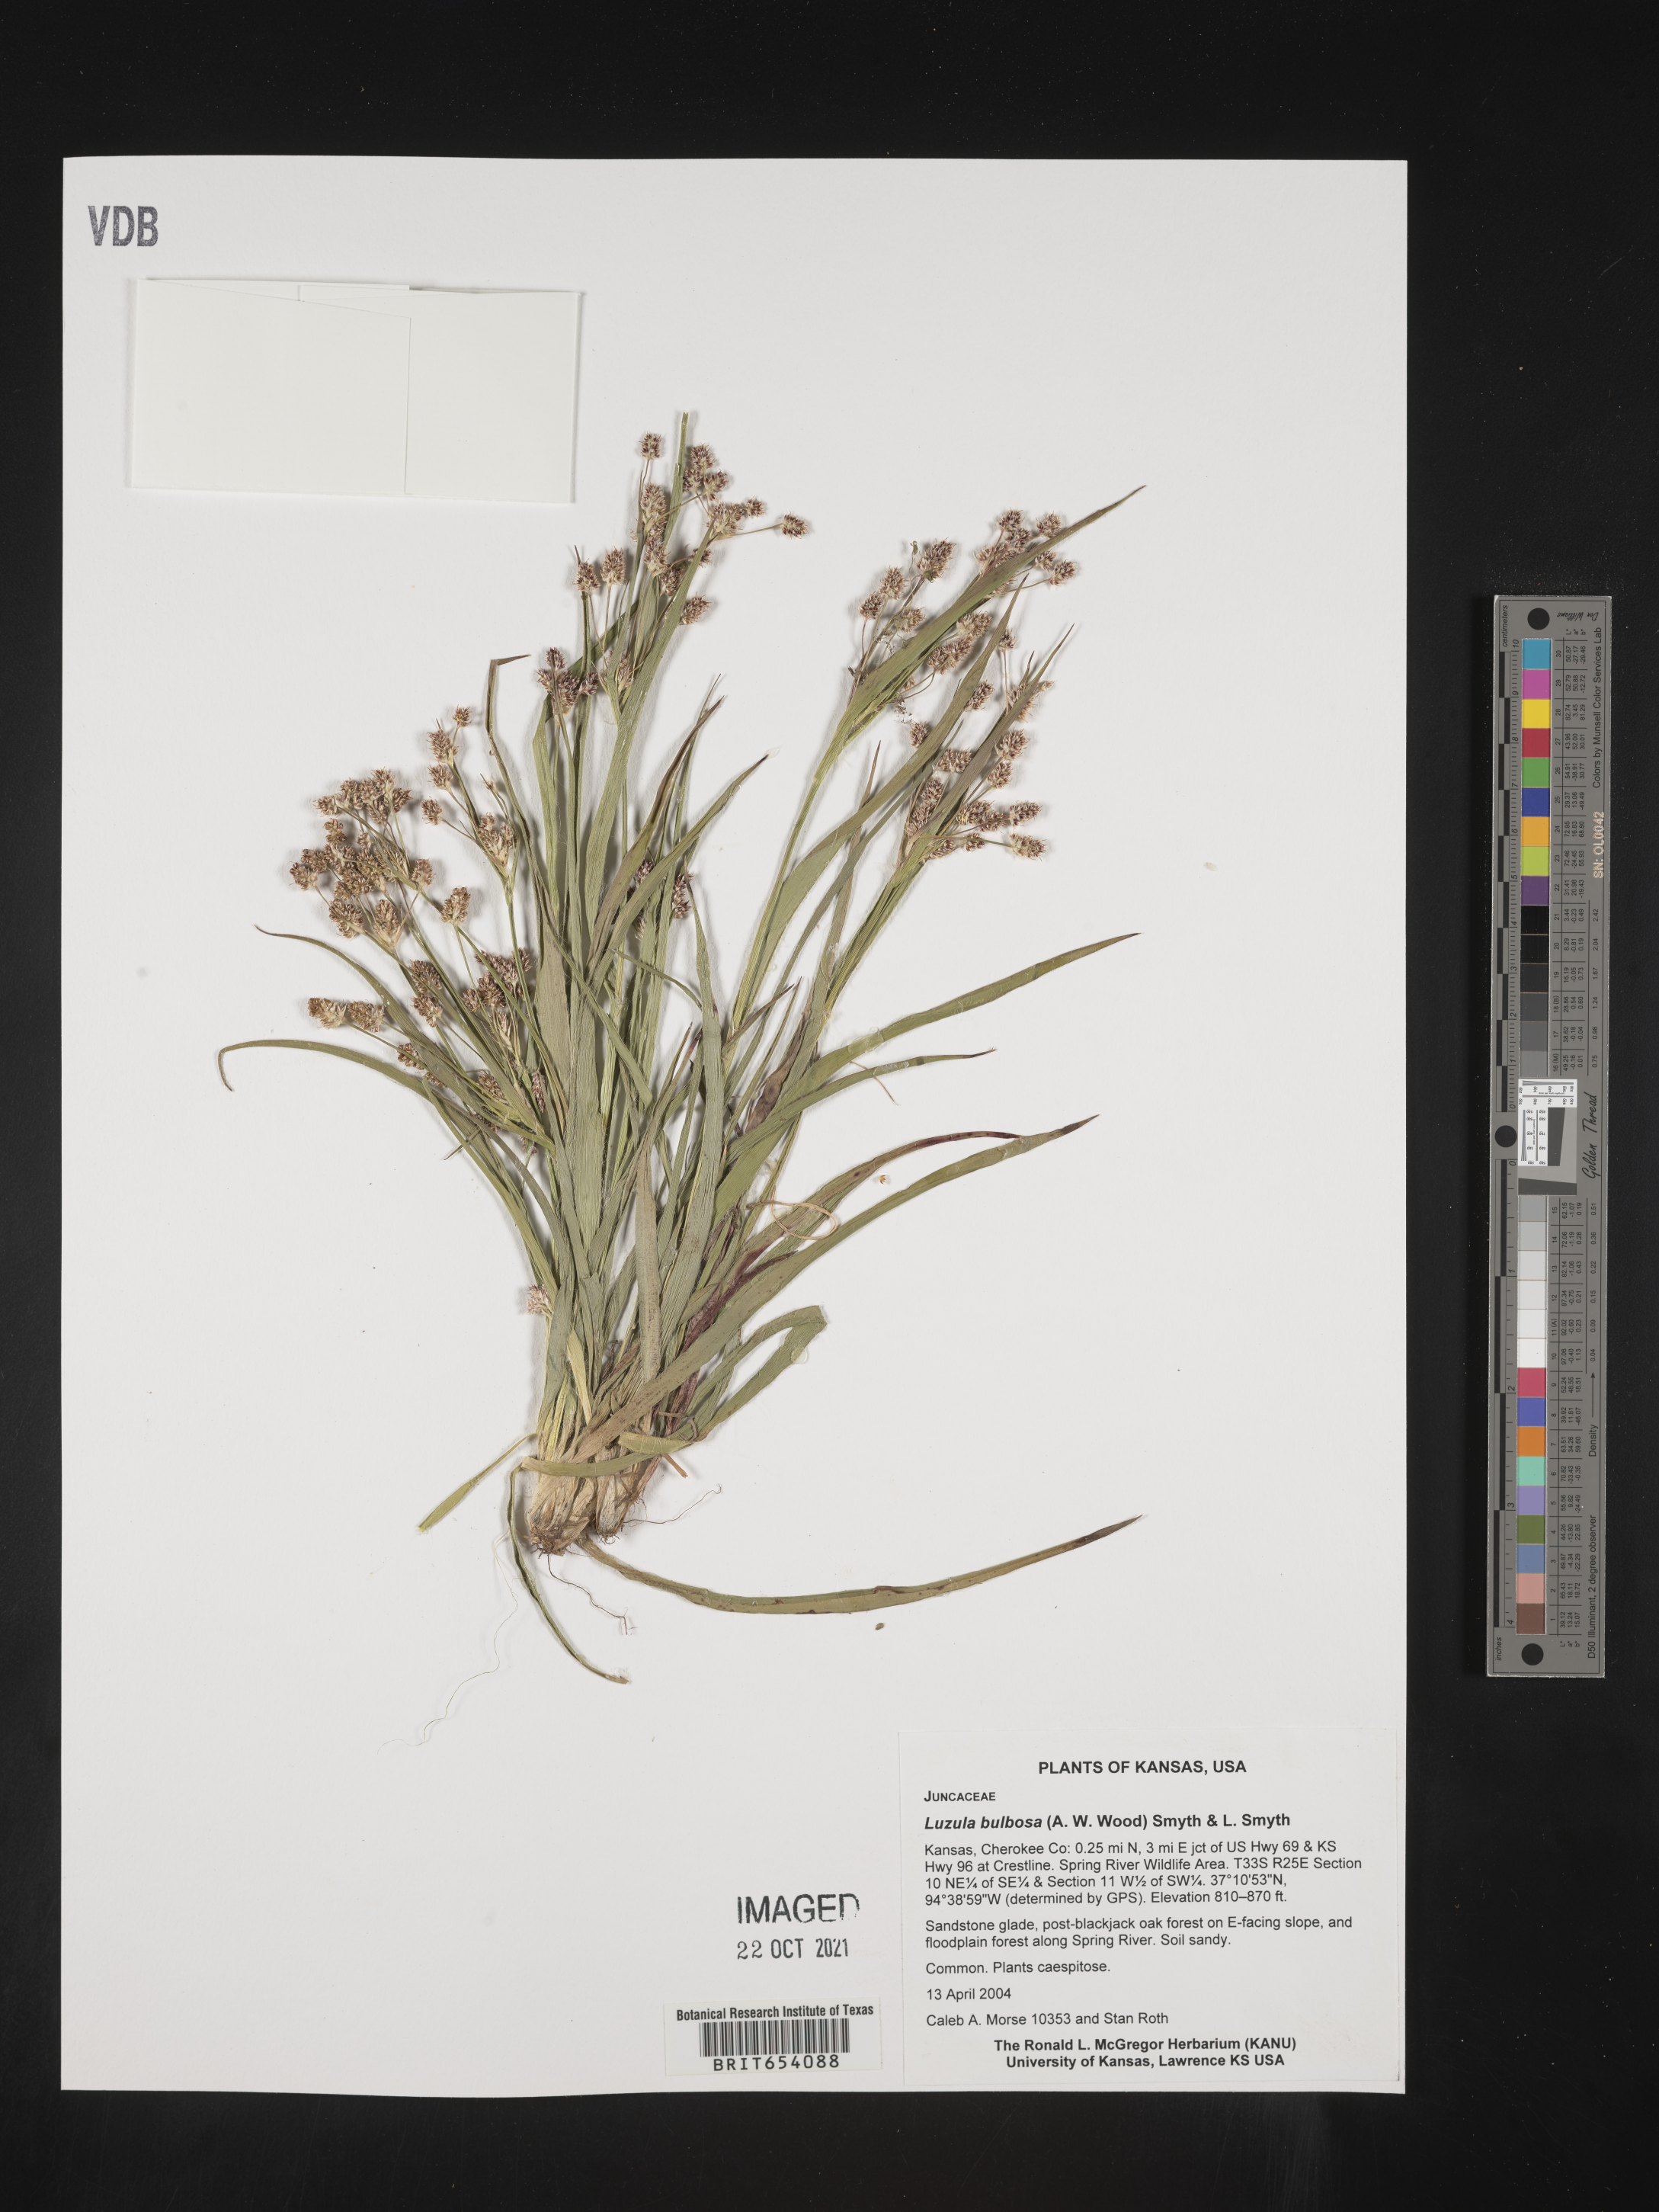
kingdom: Plantae
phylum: Tracheophyta
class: Liliopsida
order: Poales
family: Juncaceae
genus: Luzula
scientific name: Luzula bulbosa
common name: Bulbous woodrush
